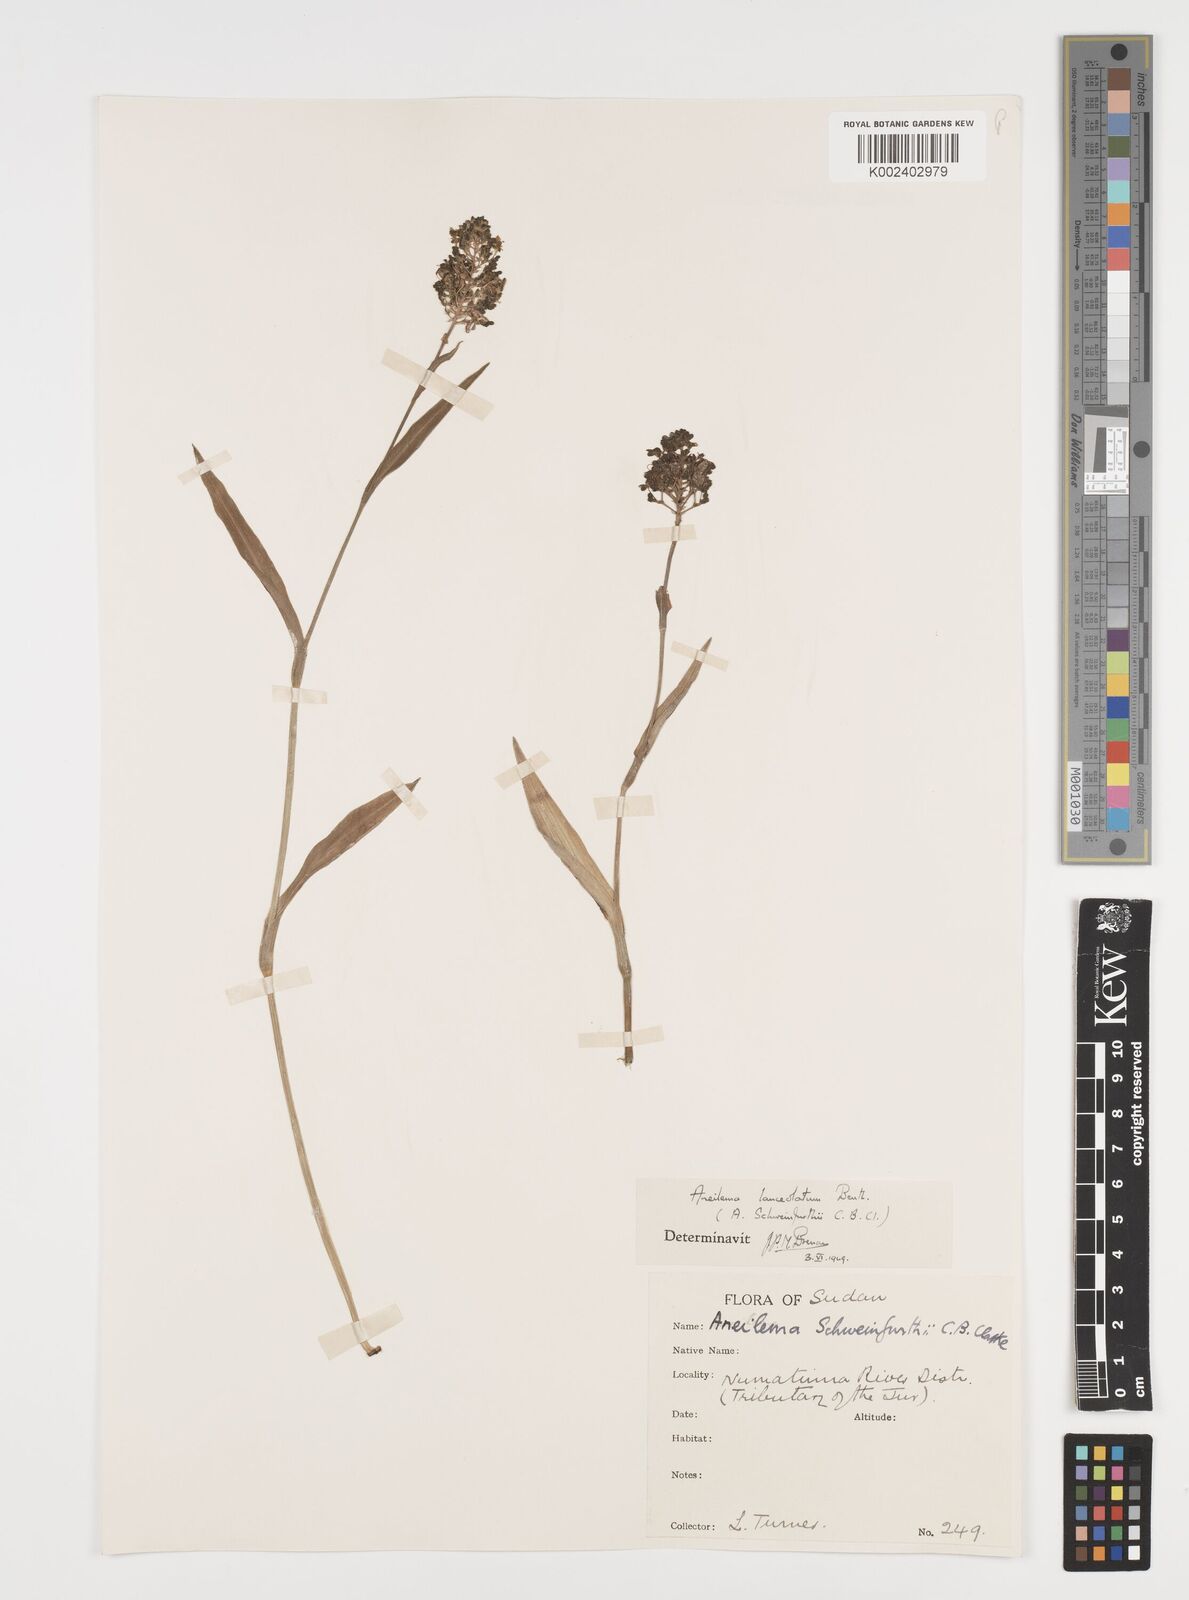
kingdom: Plantae
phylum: Tracheophyta
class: Liliopsida
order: Commelinales
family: Commelinaceae
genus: Aneilema
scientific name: Aneilema lanceolatum
